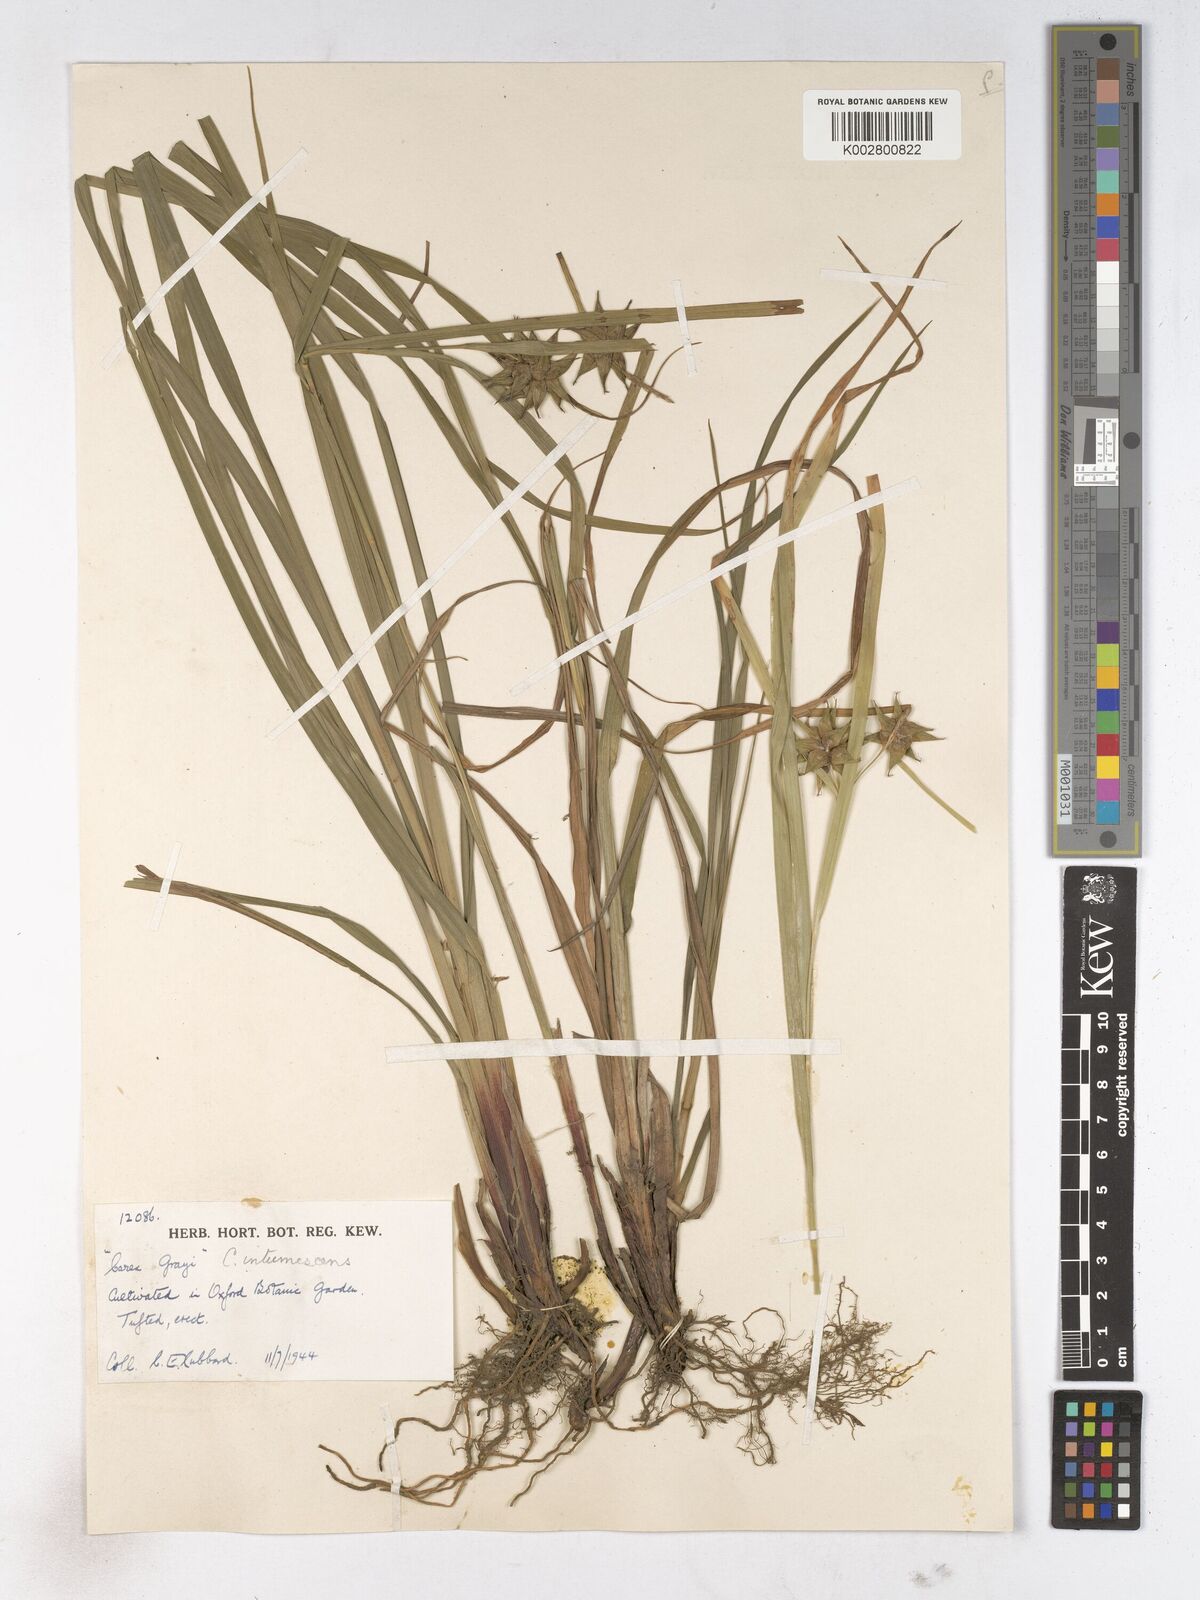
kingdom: Plantae
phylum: Tracheophyta
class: Liliopsida
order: Poales
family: Cyperaceae
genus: Carex
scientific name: Carex grayi
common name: Asa gray's sedge
